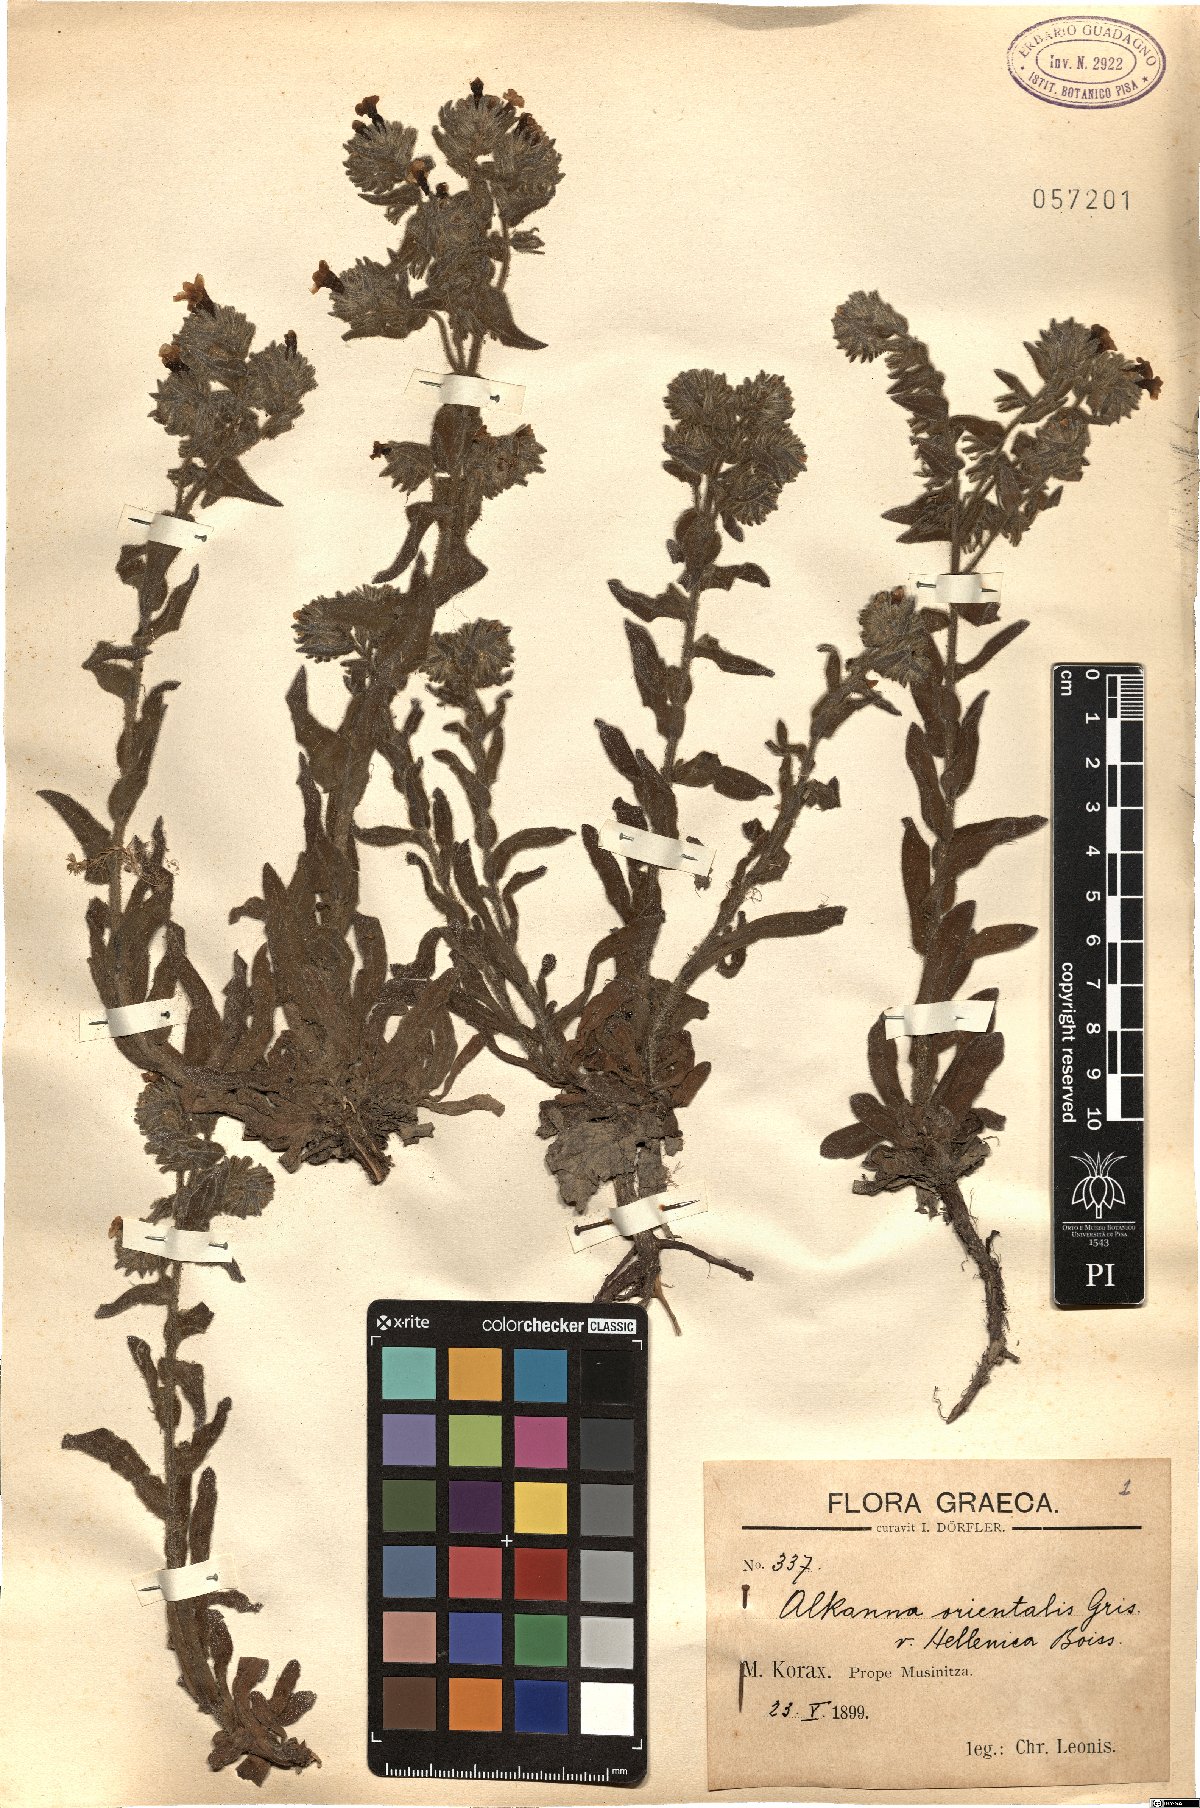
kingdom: Plantae
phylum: Tracheophyta
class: Magnoliopsida
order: Boraginales
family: Boraginaceae
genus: Alkanna
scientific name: Alkanna hellenica
